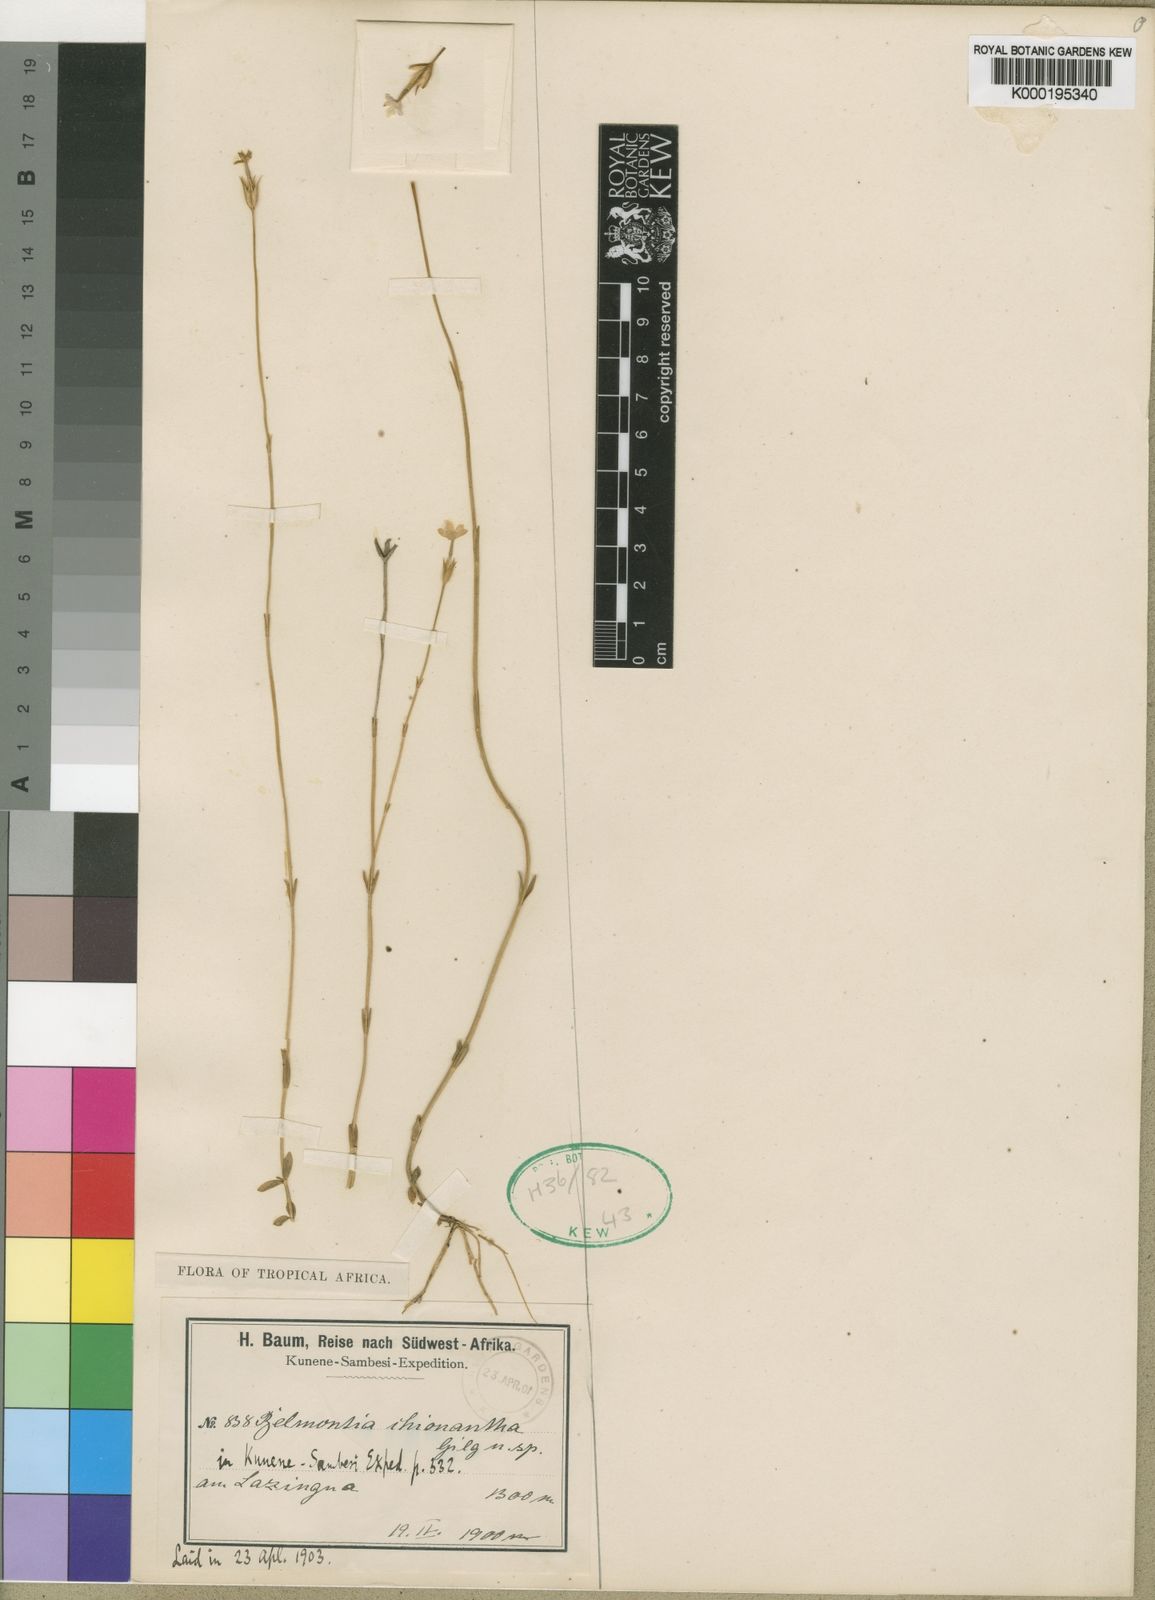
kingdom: Plantae
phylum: Tracheophyta
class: Magnoliopsida
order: Gentianales
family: Gentianaceae
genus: Exochaenium
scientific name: Exochaenium teuszii
